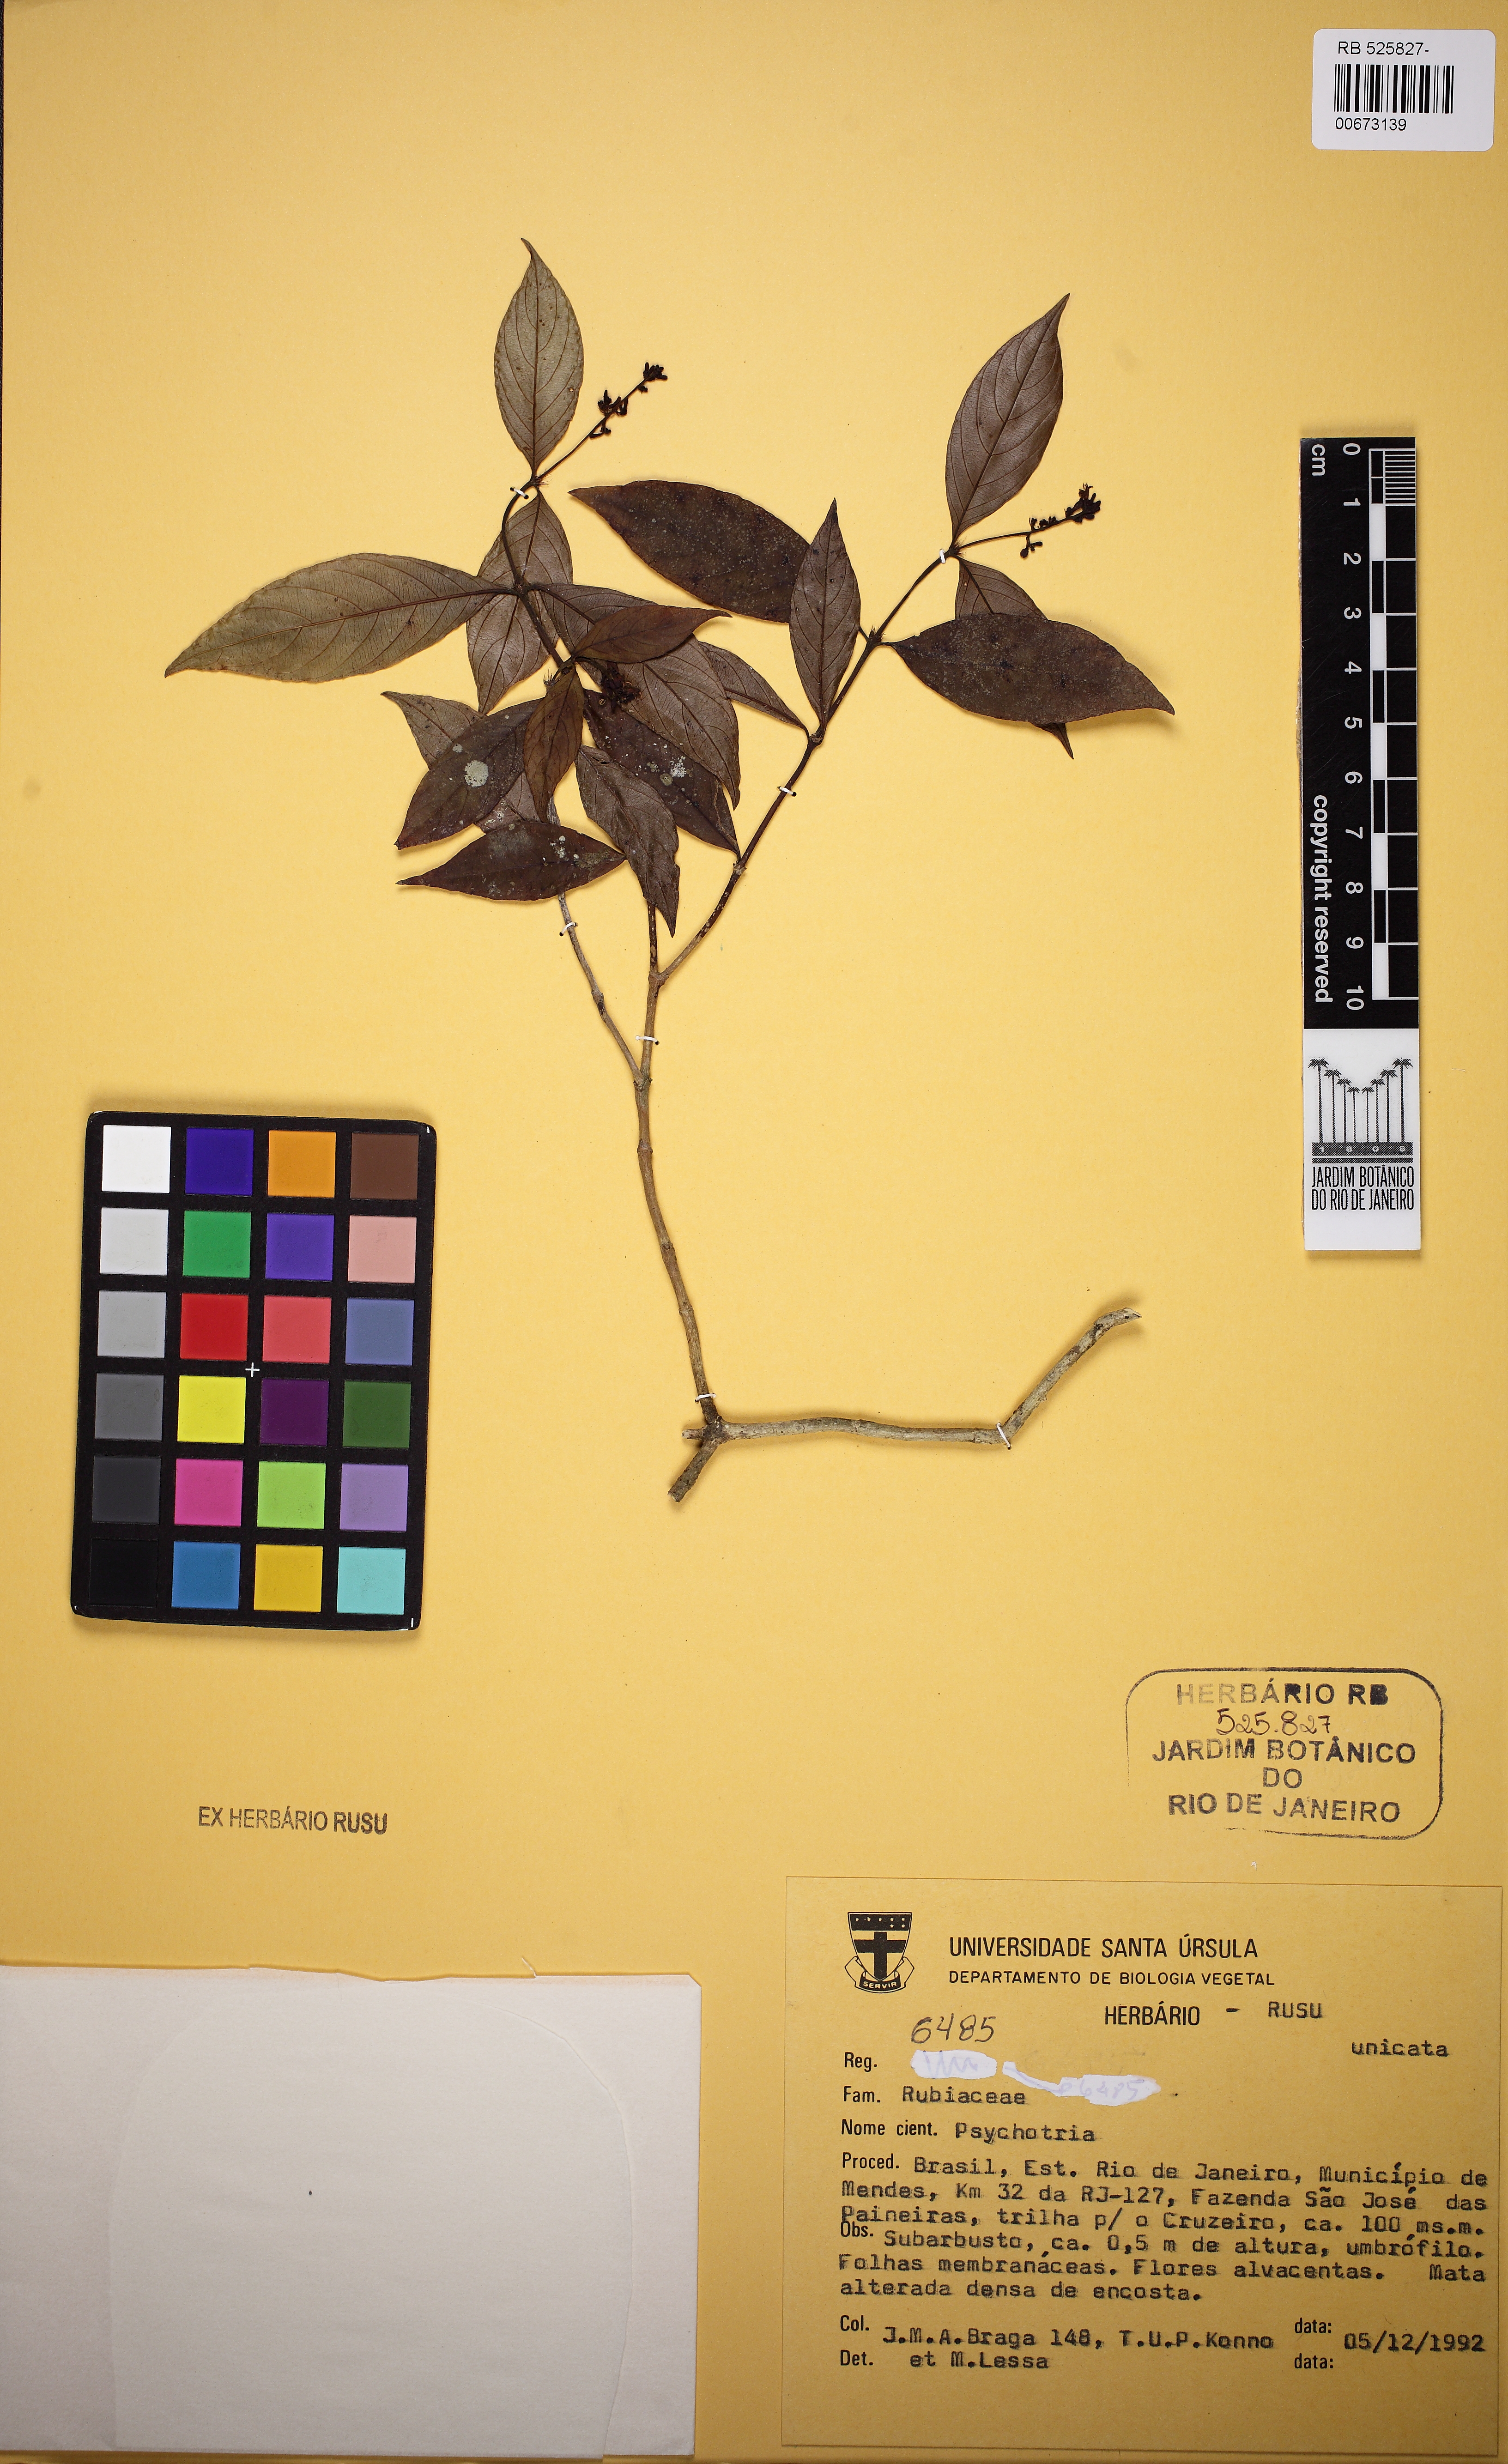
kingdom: Plantae
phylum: Tracheophyta
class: Magnoliopsida
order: Gentianales
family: Rubiaceae
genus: Psychotria
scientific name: Psychotria
